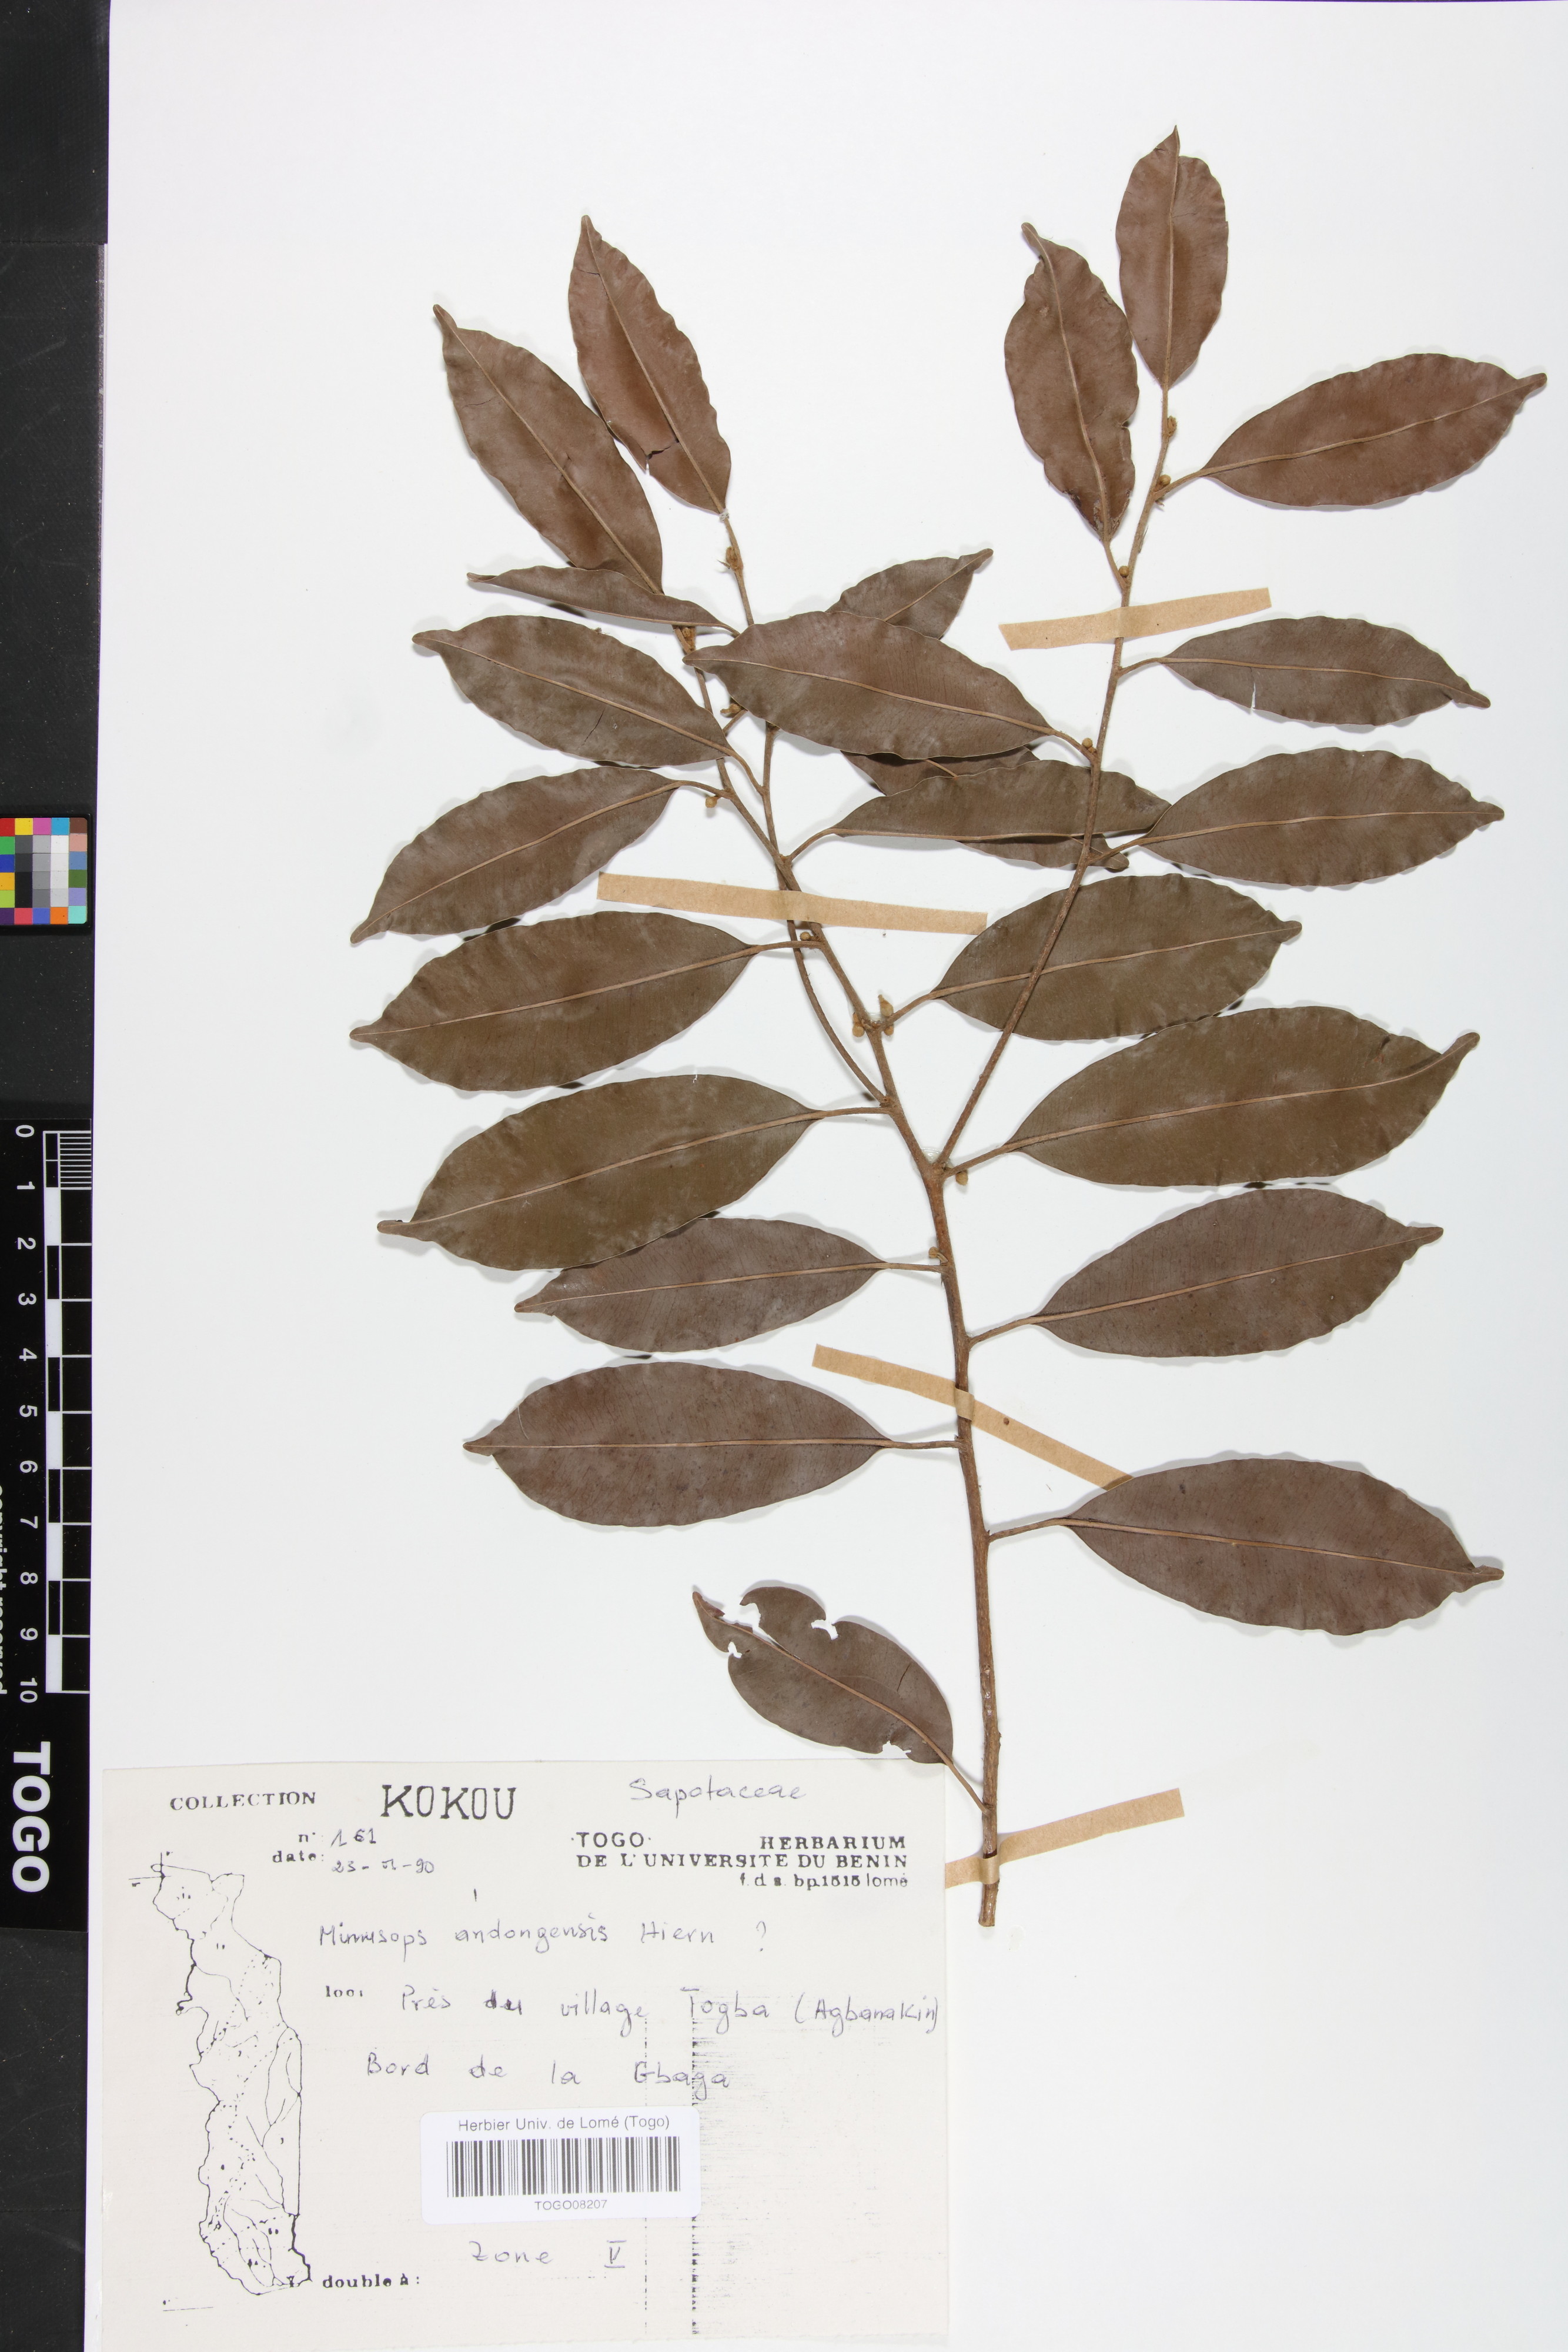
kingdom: Plantae
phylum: Tracheophyta
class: Magnoliopsida
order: Ericales
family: Sapotaceae
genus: Mimusops
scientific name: Mimusops andongensis
